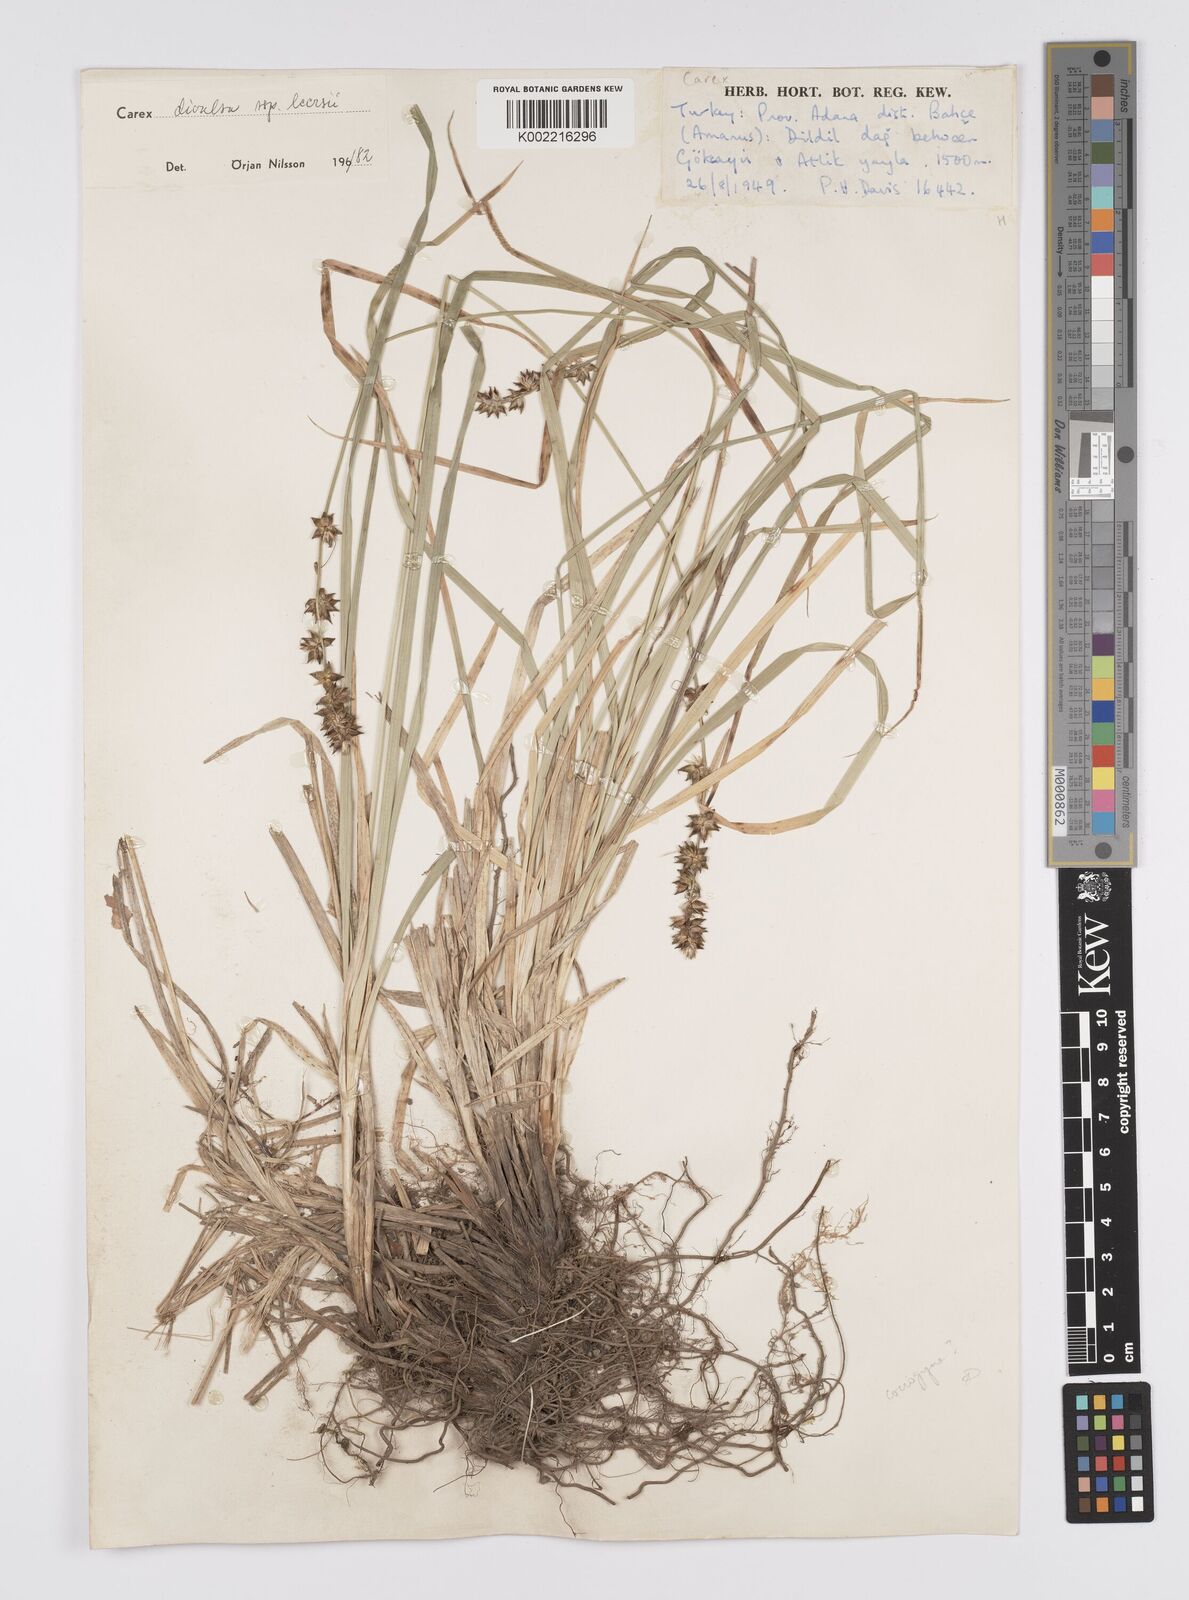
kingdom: Plantae
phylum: Tracheophyta
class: Liliopsida
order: Poales
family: Cyperaceae
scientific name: Cyperaceae
